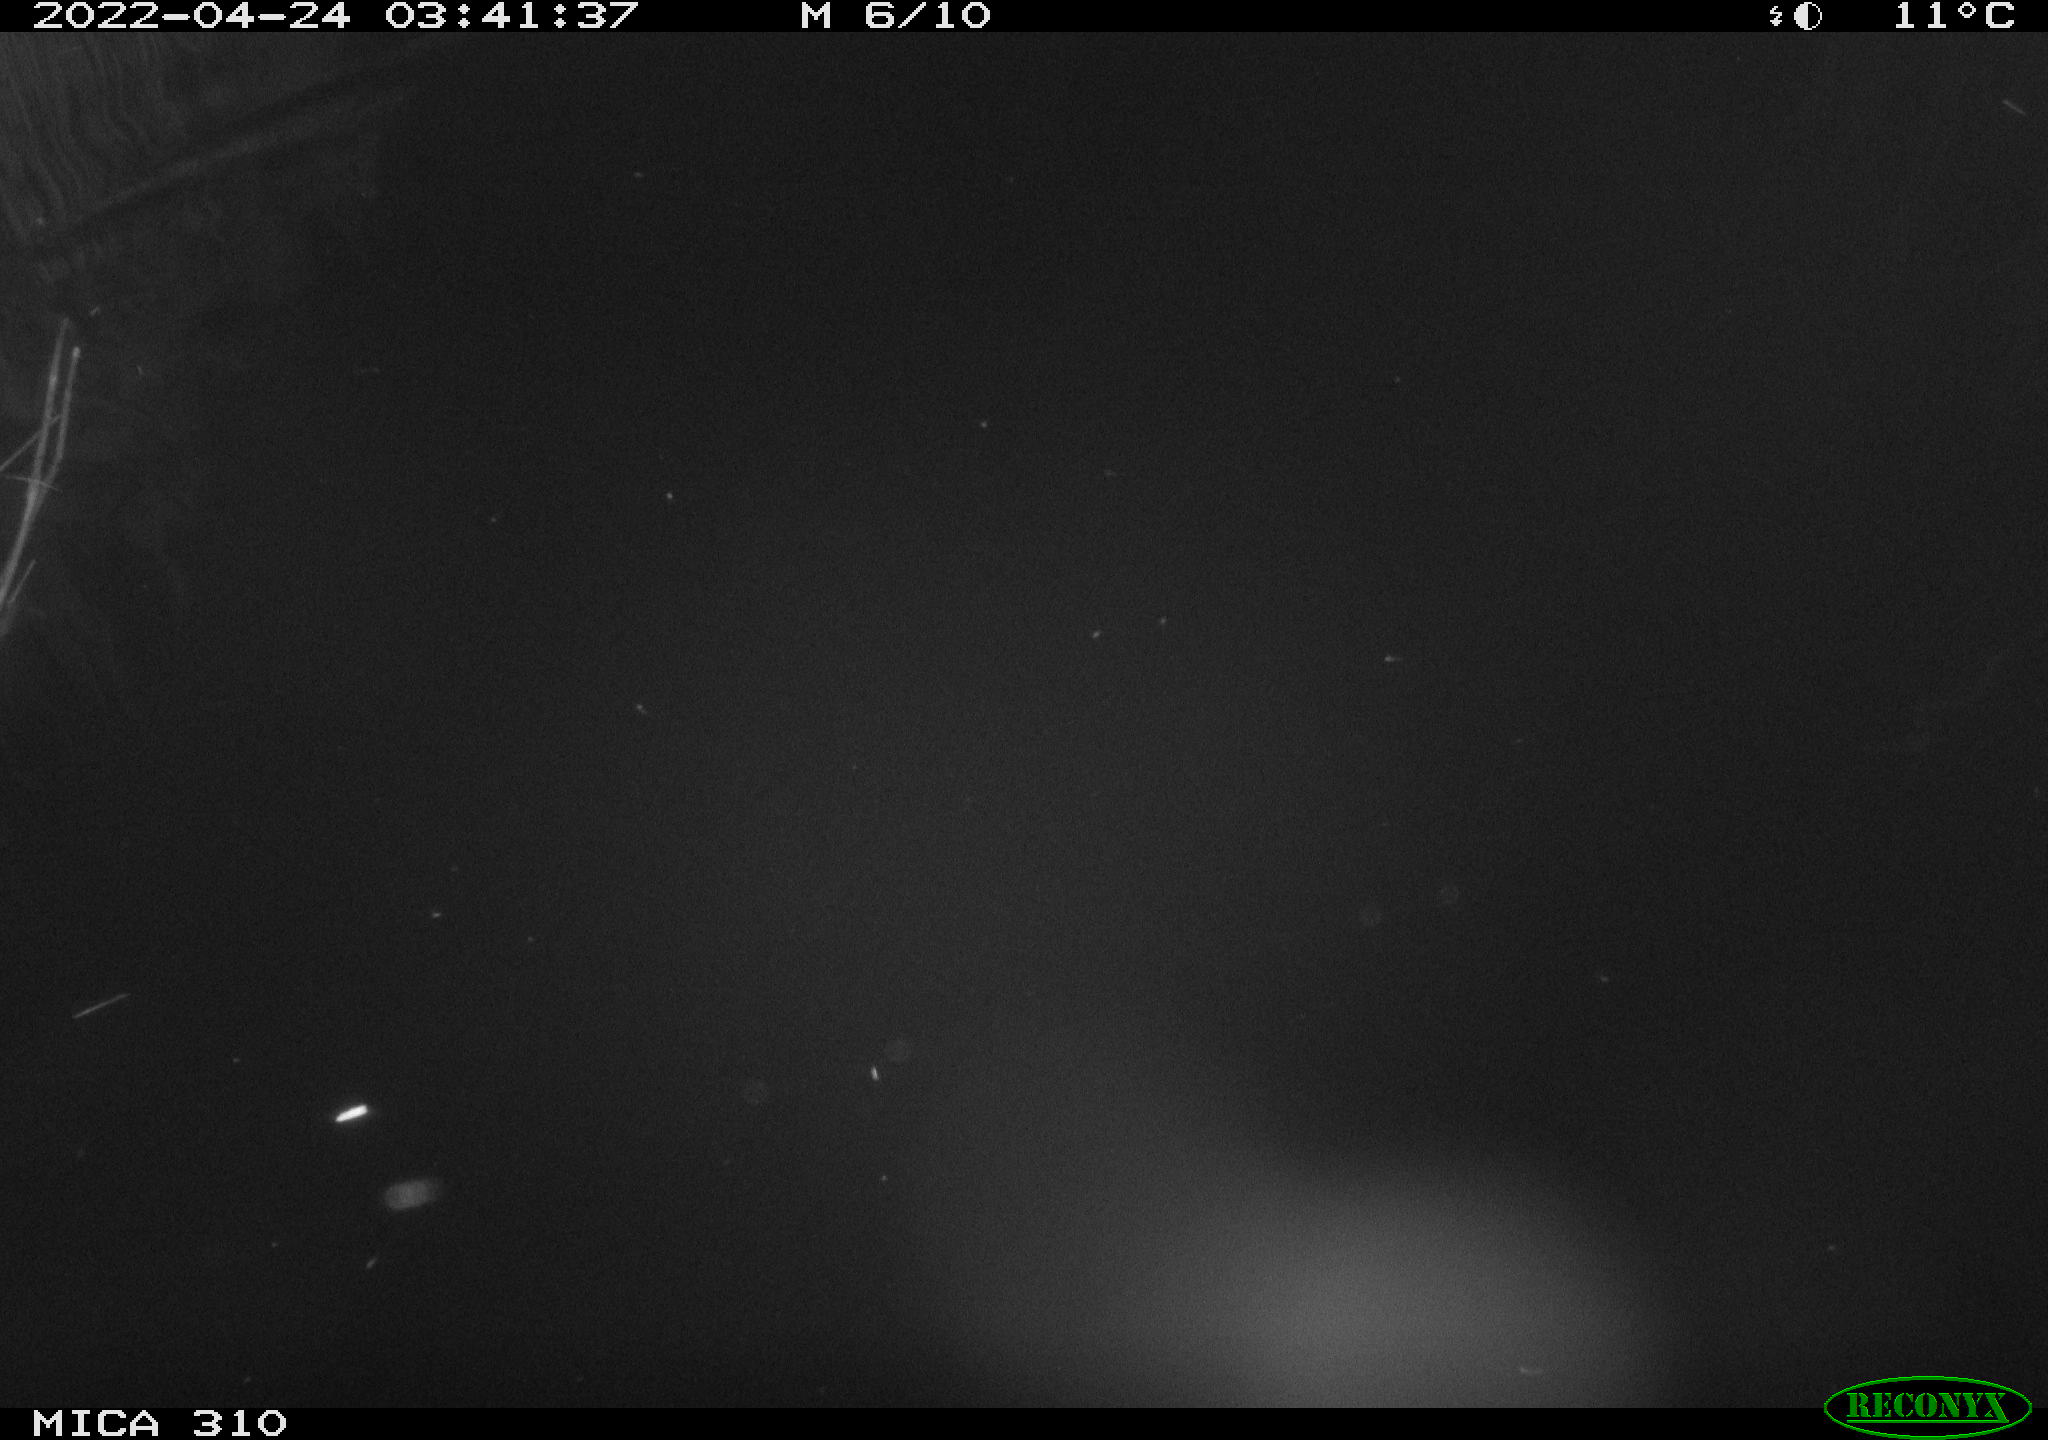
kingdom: Animalia
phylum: Chordata
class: Aves
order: Anseriformes
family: Anatidae
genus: Anas
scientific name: Anas platyrhynchos
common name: Mallard
